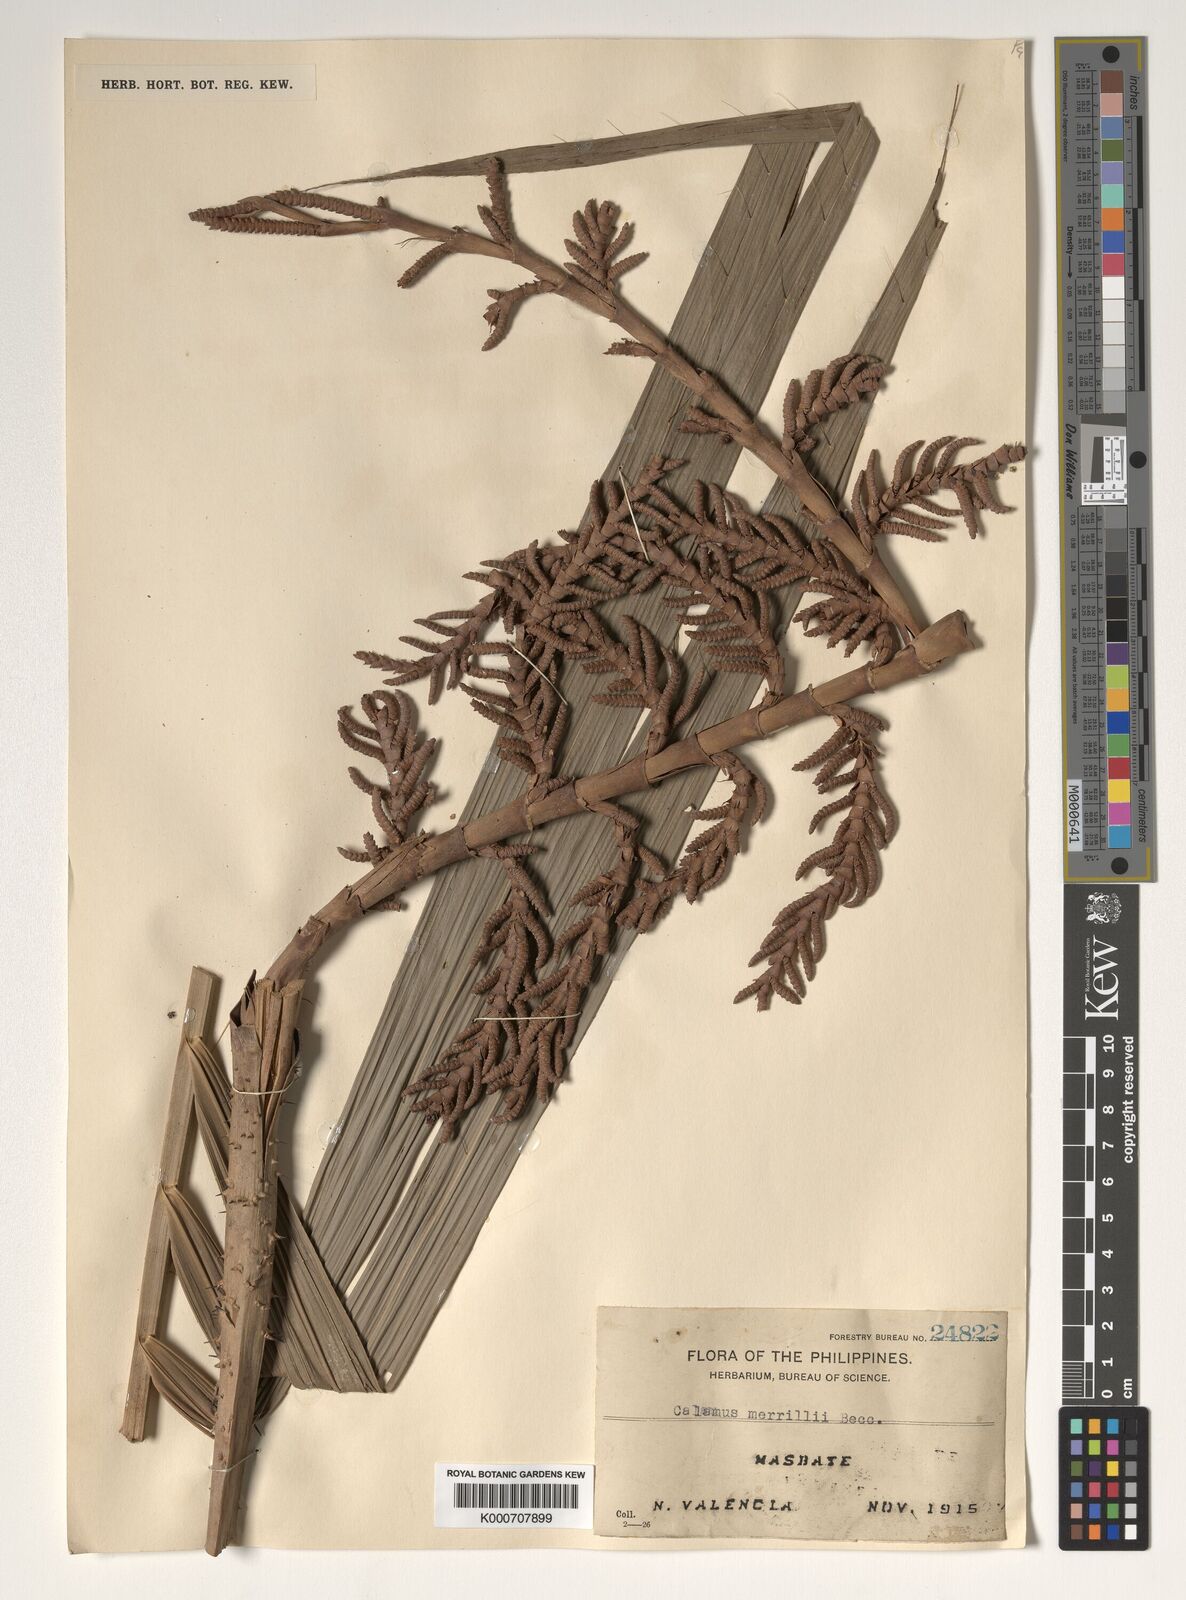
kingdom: Plantae
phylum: Tracheophyta
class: Liliopsida
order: Arecales
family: Arecaceae
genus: Calamus
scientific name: Calamus zollingeri
